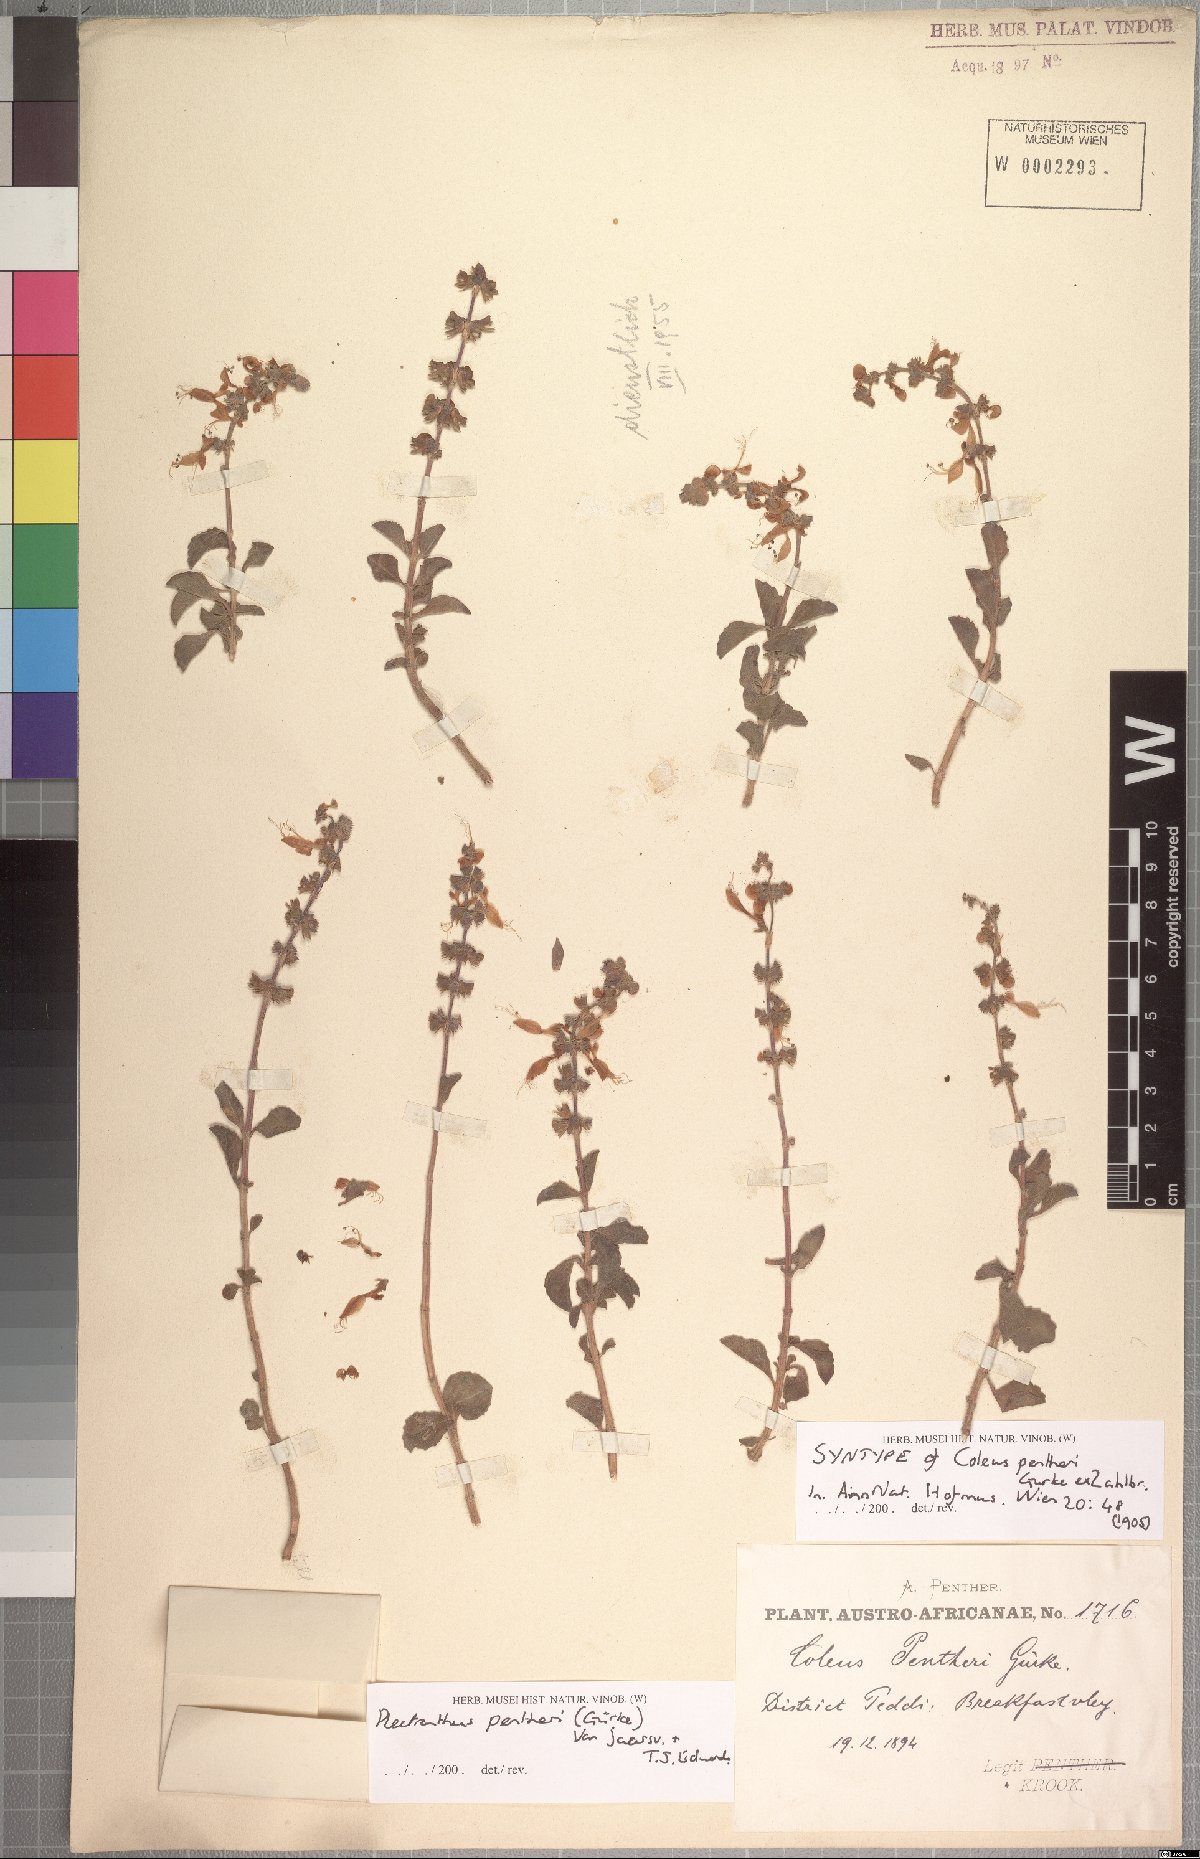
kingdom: Plantae
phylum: Tracheophyta
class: Magnoliopsida
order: Lamiales
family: Lamiaceae
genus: Coleus
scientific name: Coleus pentheri
